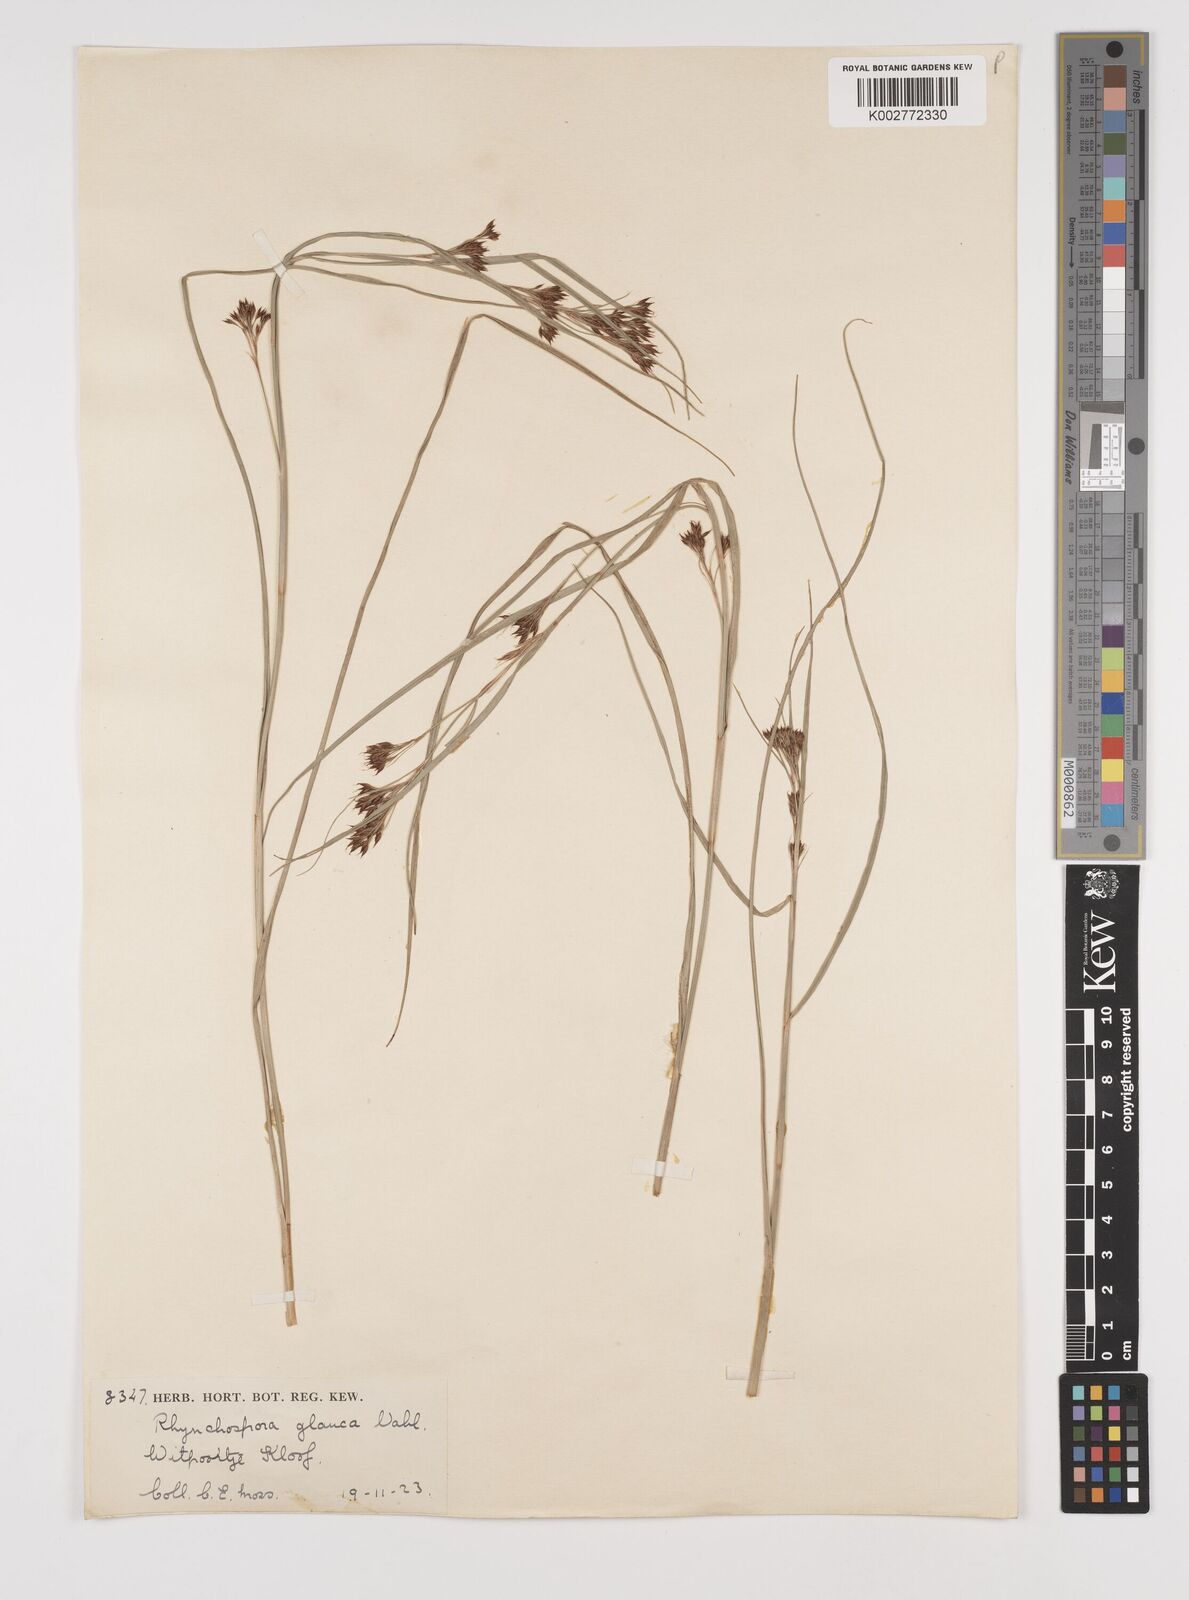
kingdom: Plantae
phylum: Tracheophyta
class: Liliopsida
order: Poales
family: Cyperaceae
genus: Rhynchospora
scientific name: Rhynchospora rugosa
